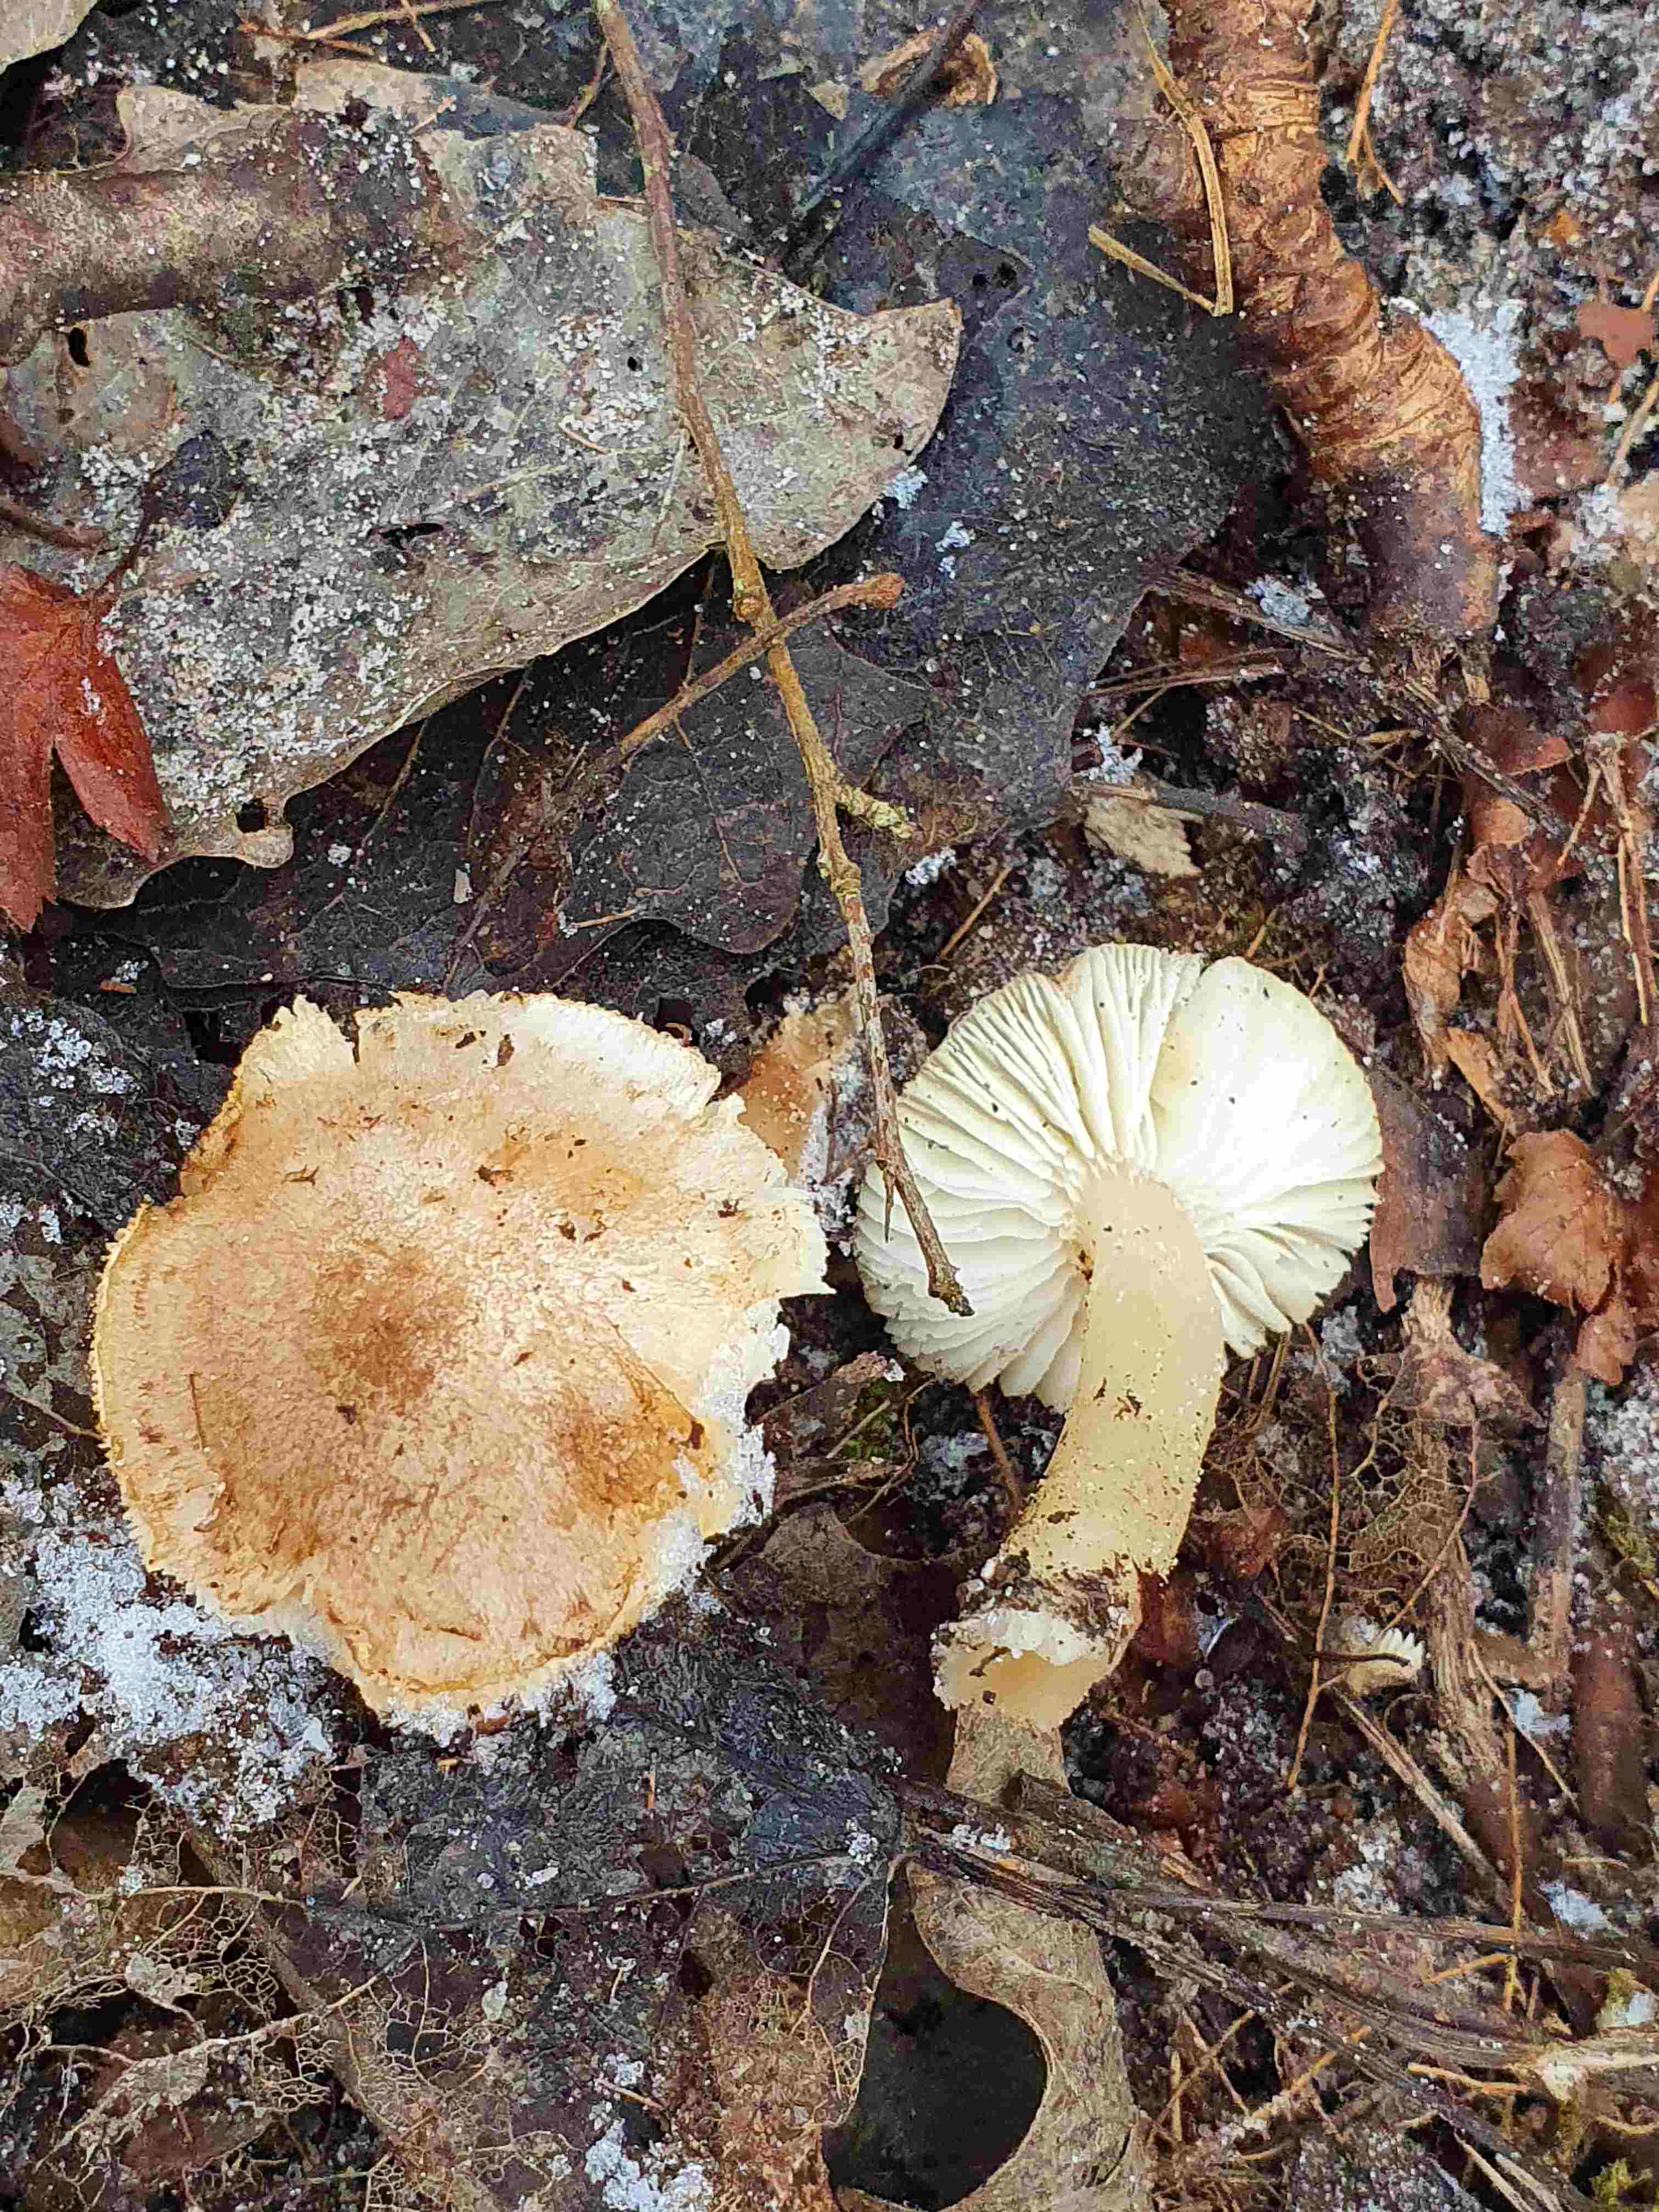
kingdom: Fungi
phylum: Basidiomycota
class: Agaricomycetes
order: Agaricales
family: Tricholomataceae
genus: Tricholoma
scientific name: Tricholoma
